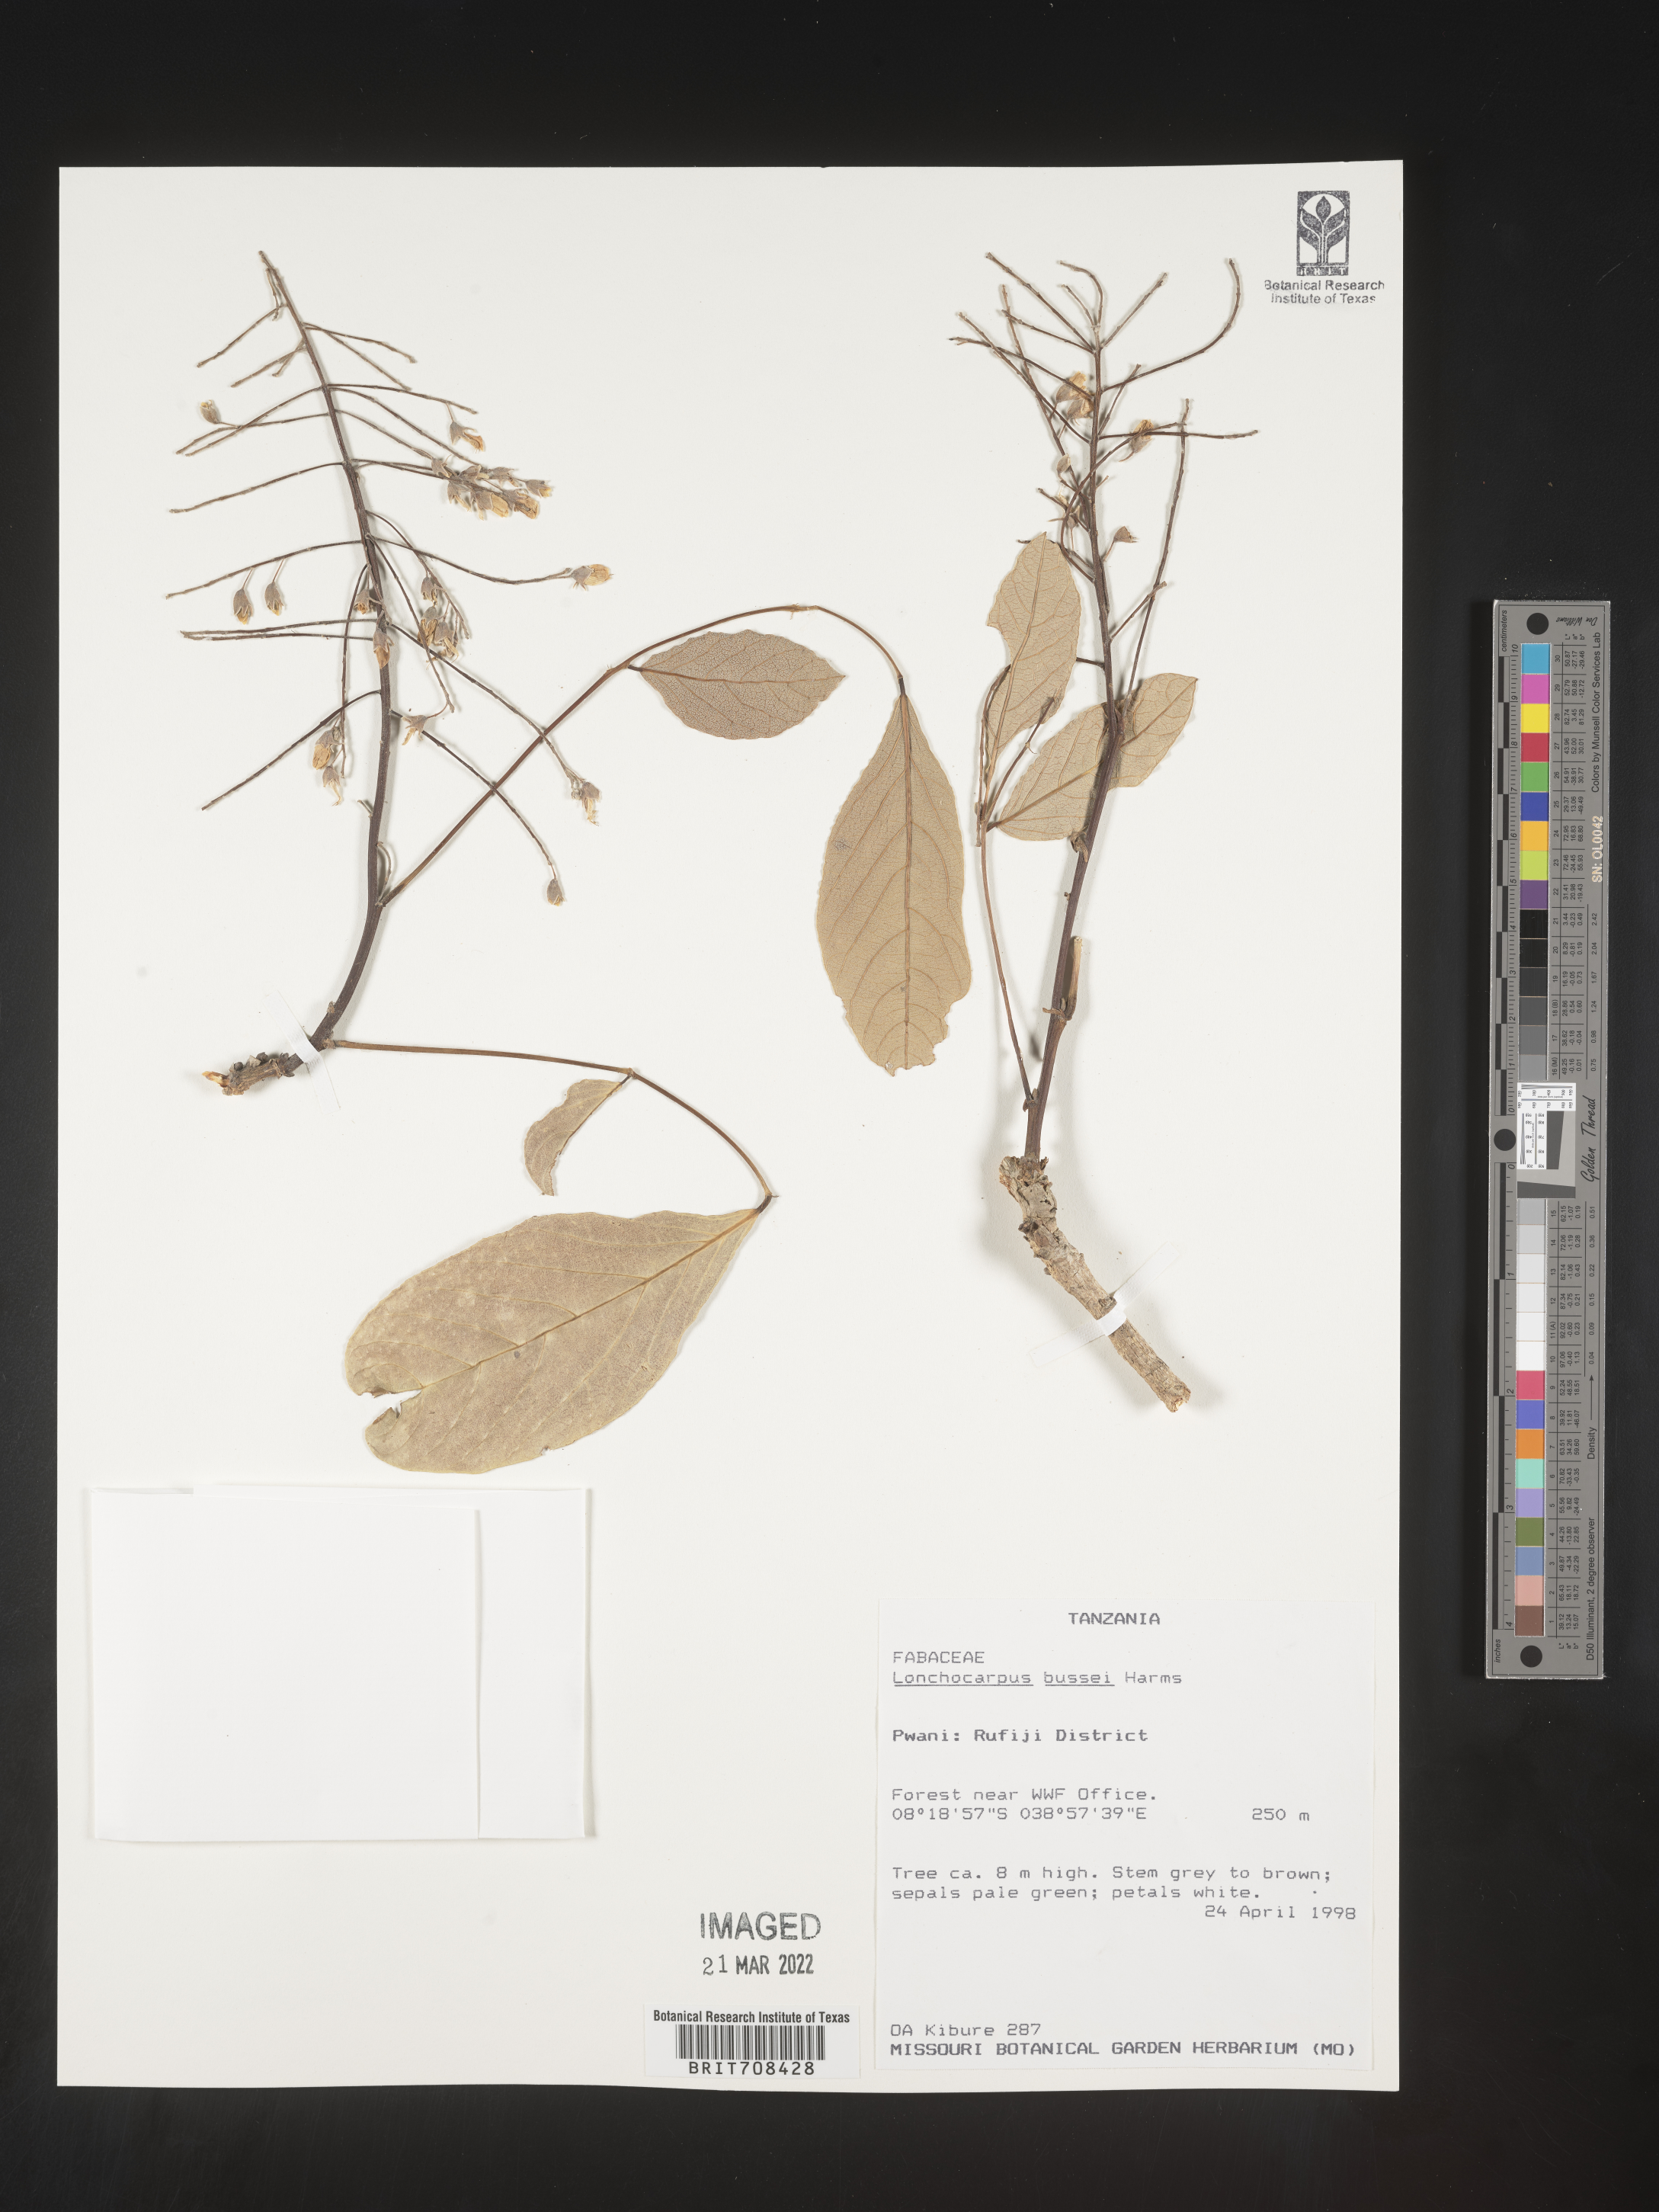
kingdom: Plantae
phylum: Tracheophyta
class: Magnoliopsida
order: Fabales
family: Fabaceae
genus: Lonchocarpus
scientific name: Lonchocarpus
